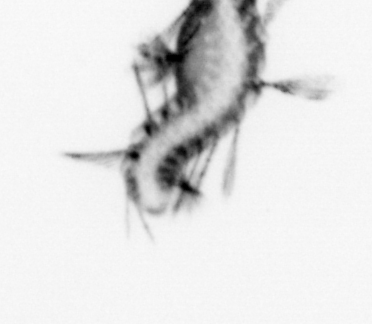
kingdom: Animalia
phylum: Annelida
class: Polychaeta
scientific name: Polychaeta
